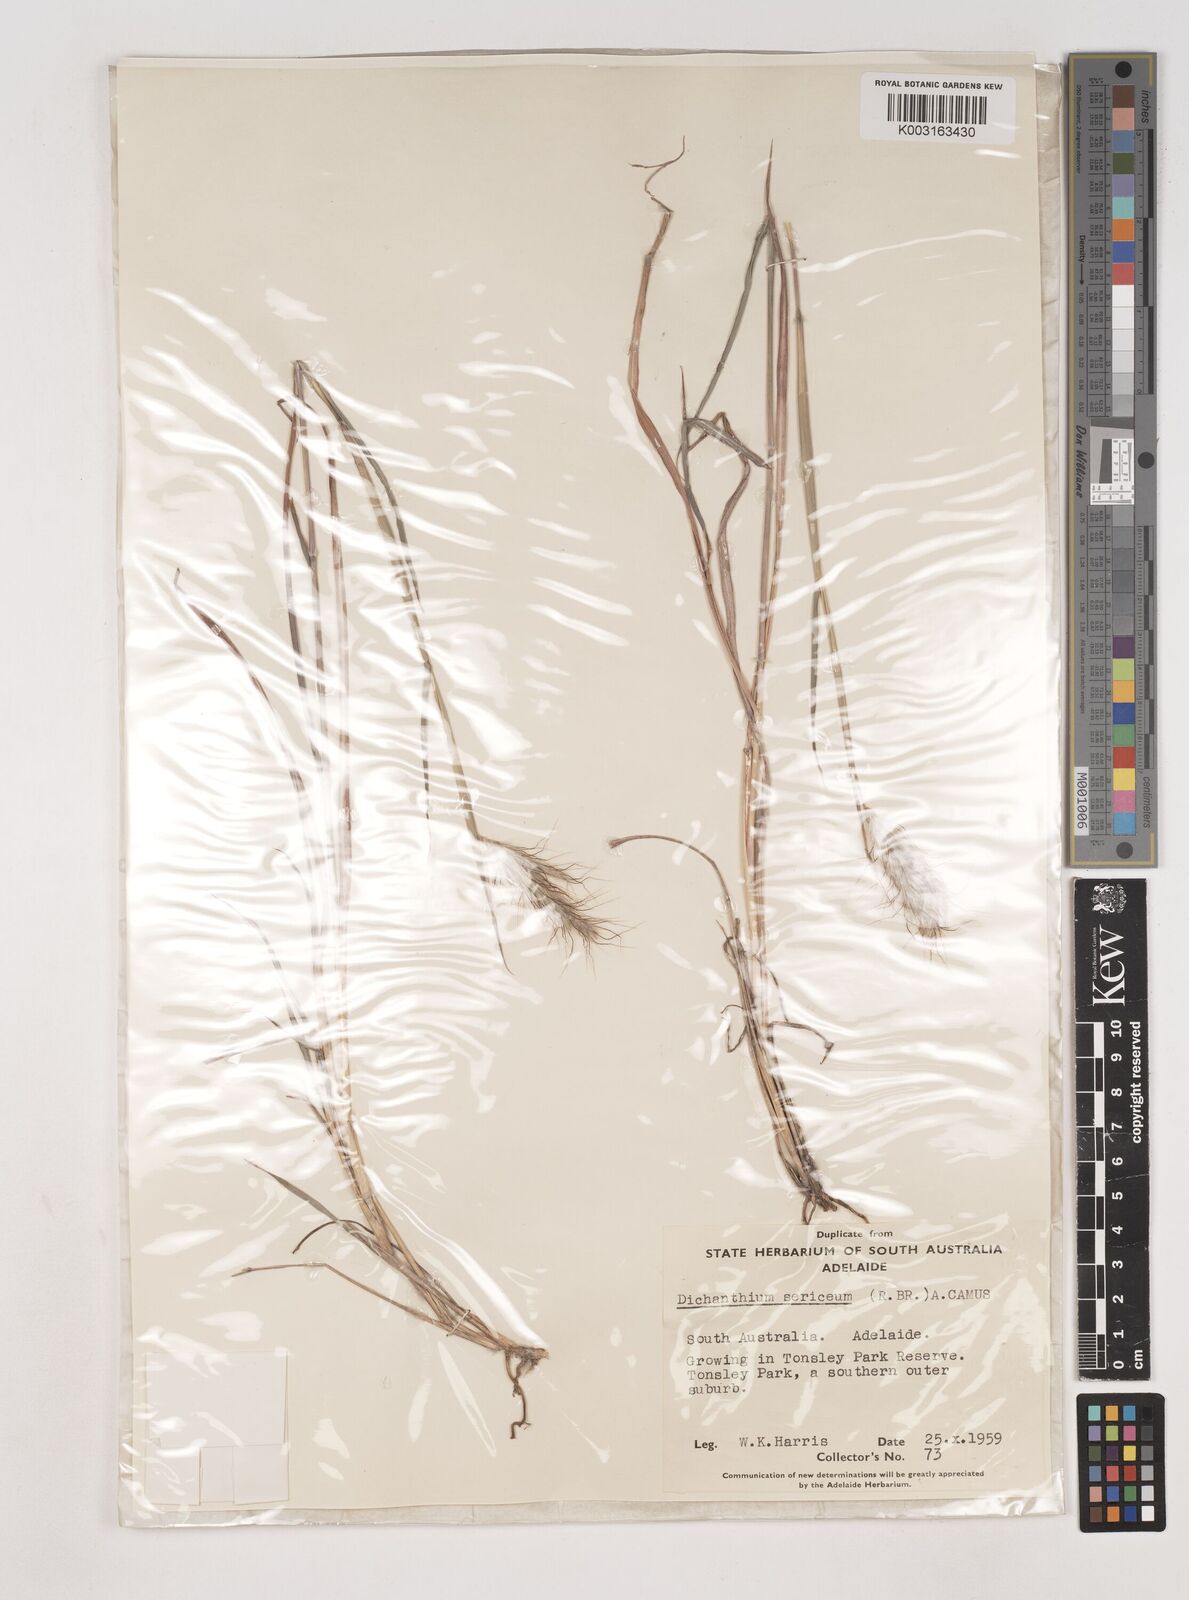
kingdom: Plantae
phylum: Tracheophyta
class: Liliopsida
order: Poales
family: Poaceae
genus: Dichanthium
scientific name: Dichanthium sericeum
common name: Silky bluestem
